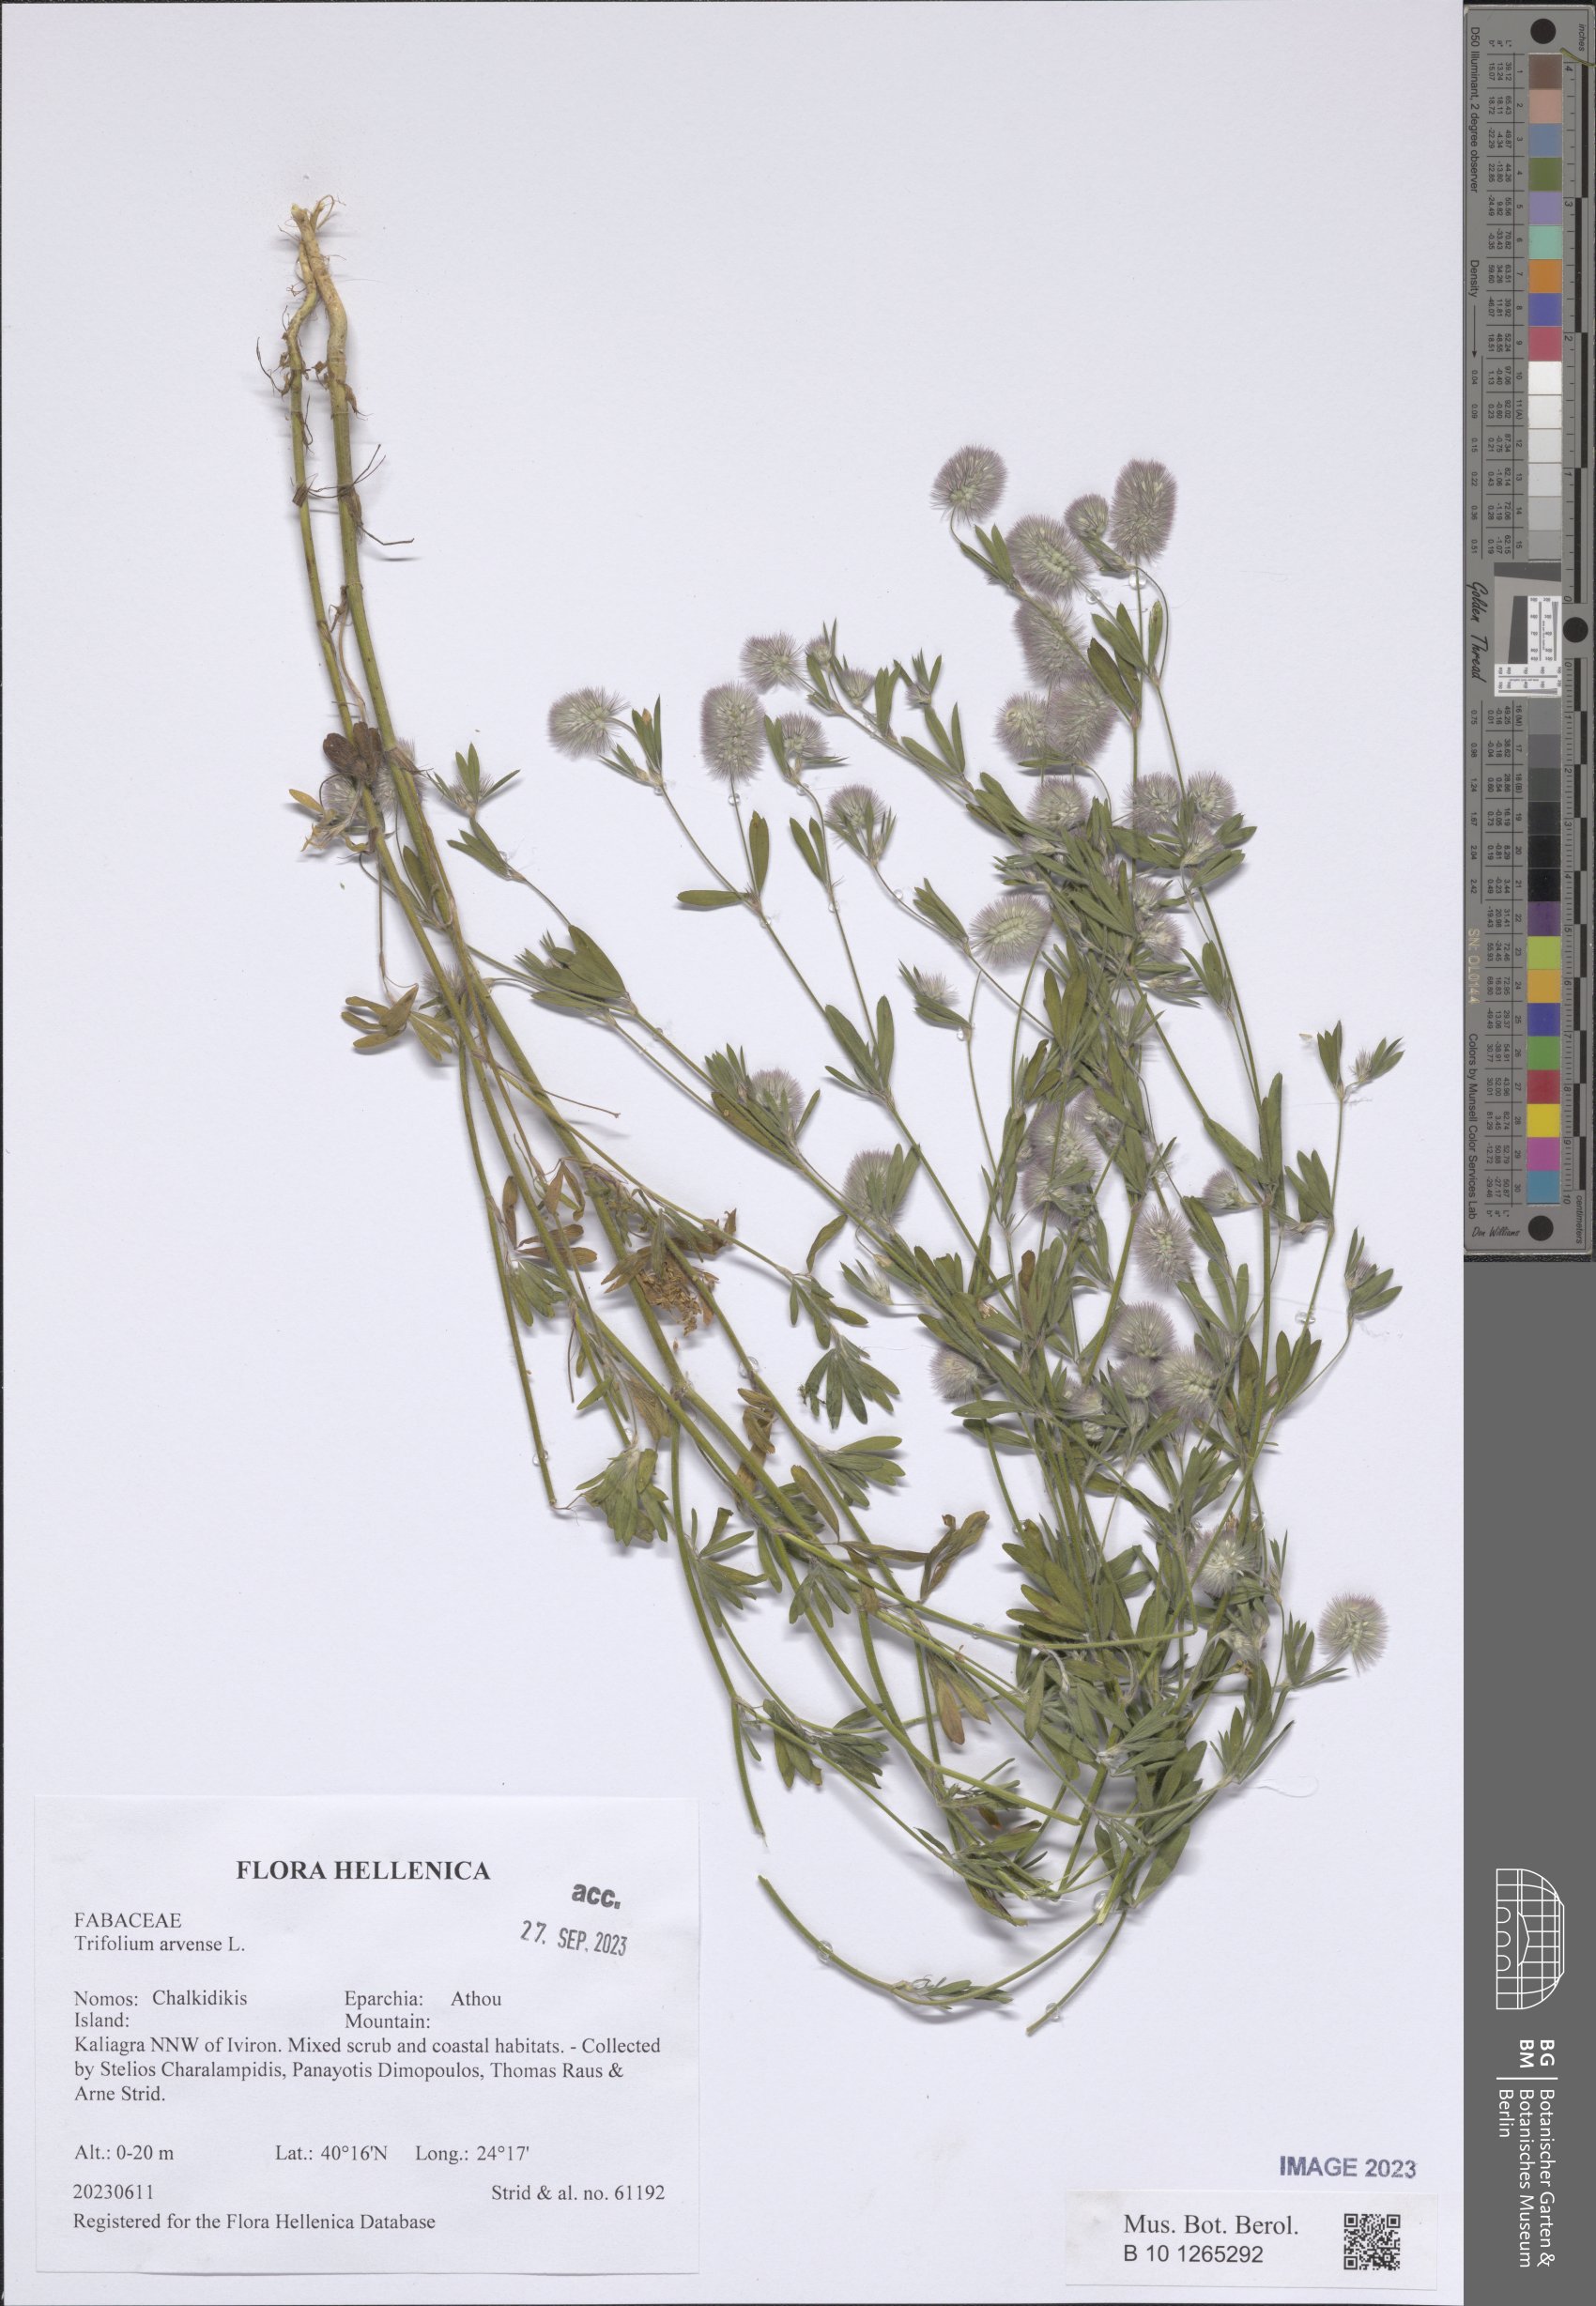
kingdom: Plantae
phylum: Tracheophyta
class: Magnoliopsida
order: Fabales
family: Fabaceae
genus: Trifolium
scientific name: Trifolium arvense
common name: Hare's-foot clover
